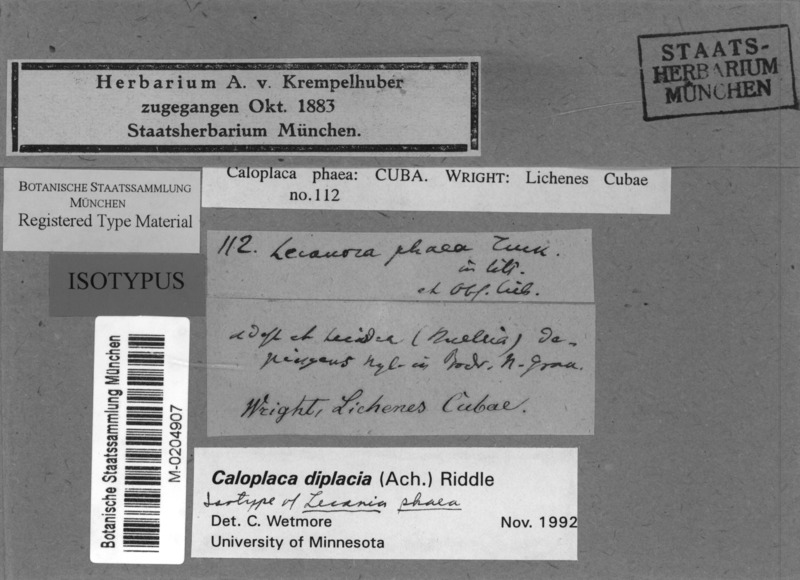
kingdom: Fungi
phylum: Ascomycota
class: Lecanoromycetes
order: Teloschistales
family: Teloschistaceae
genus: Sucioplaca
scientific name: Sucioplaca diplacia
